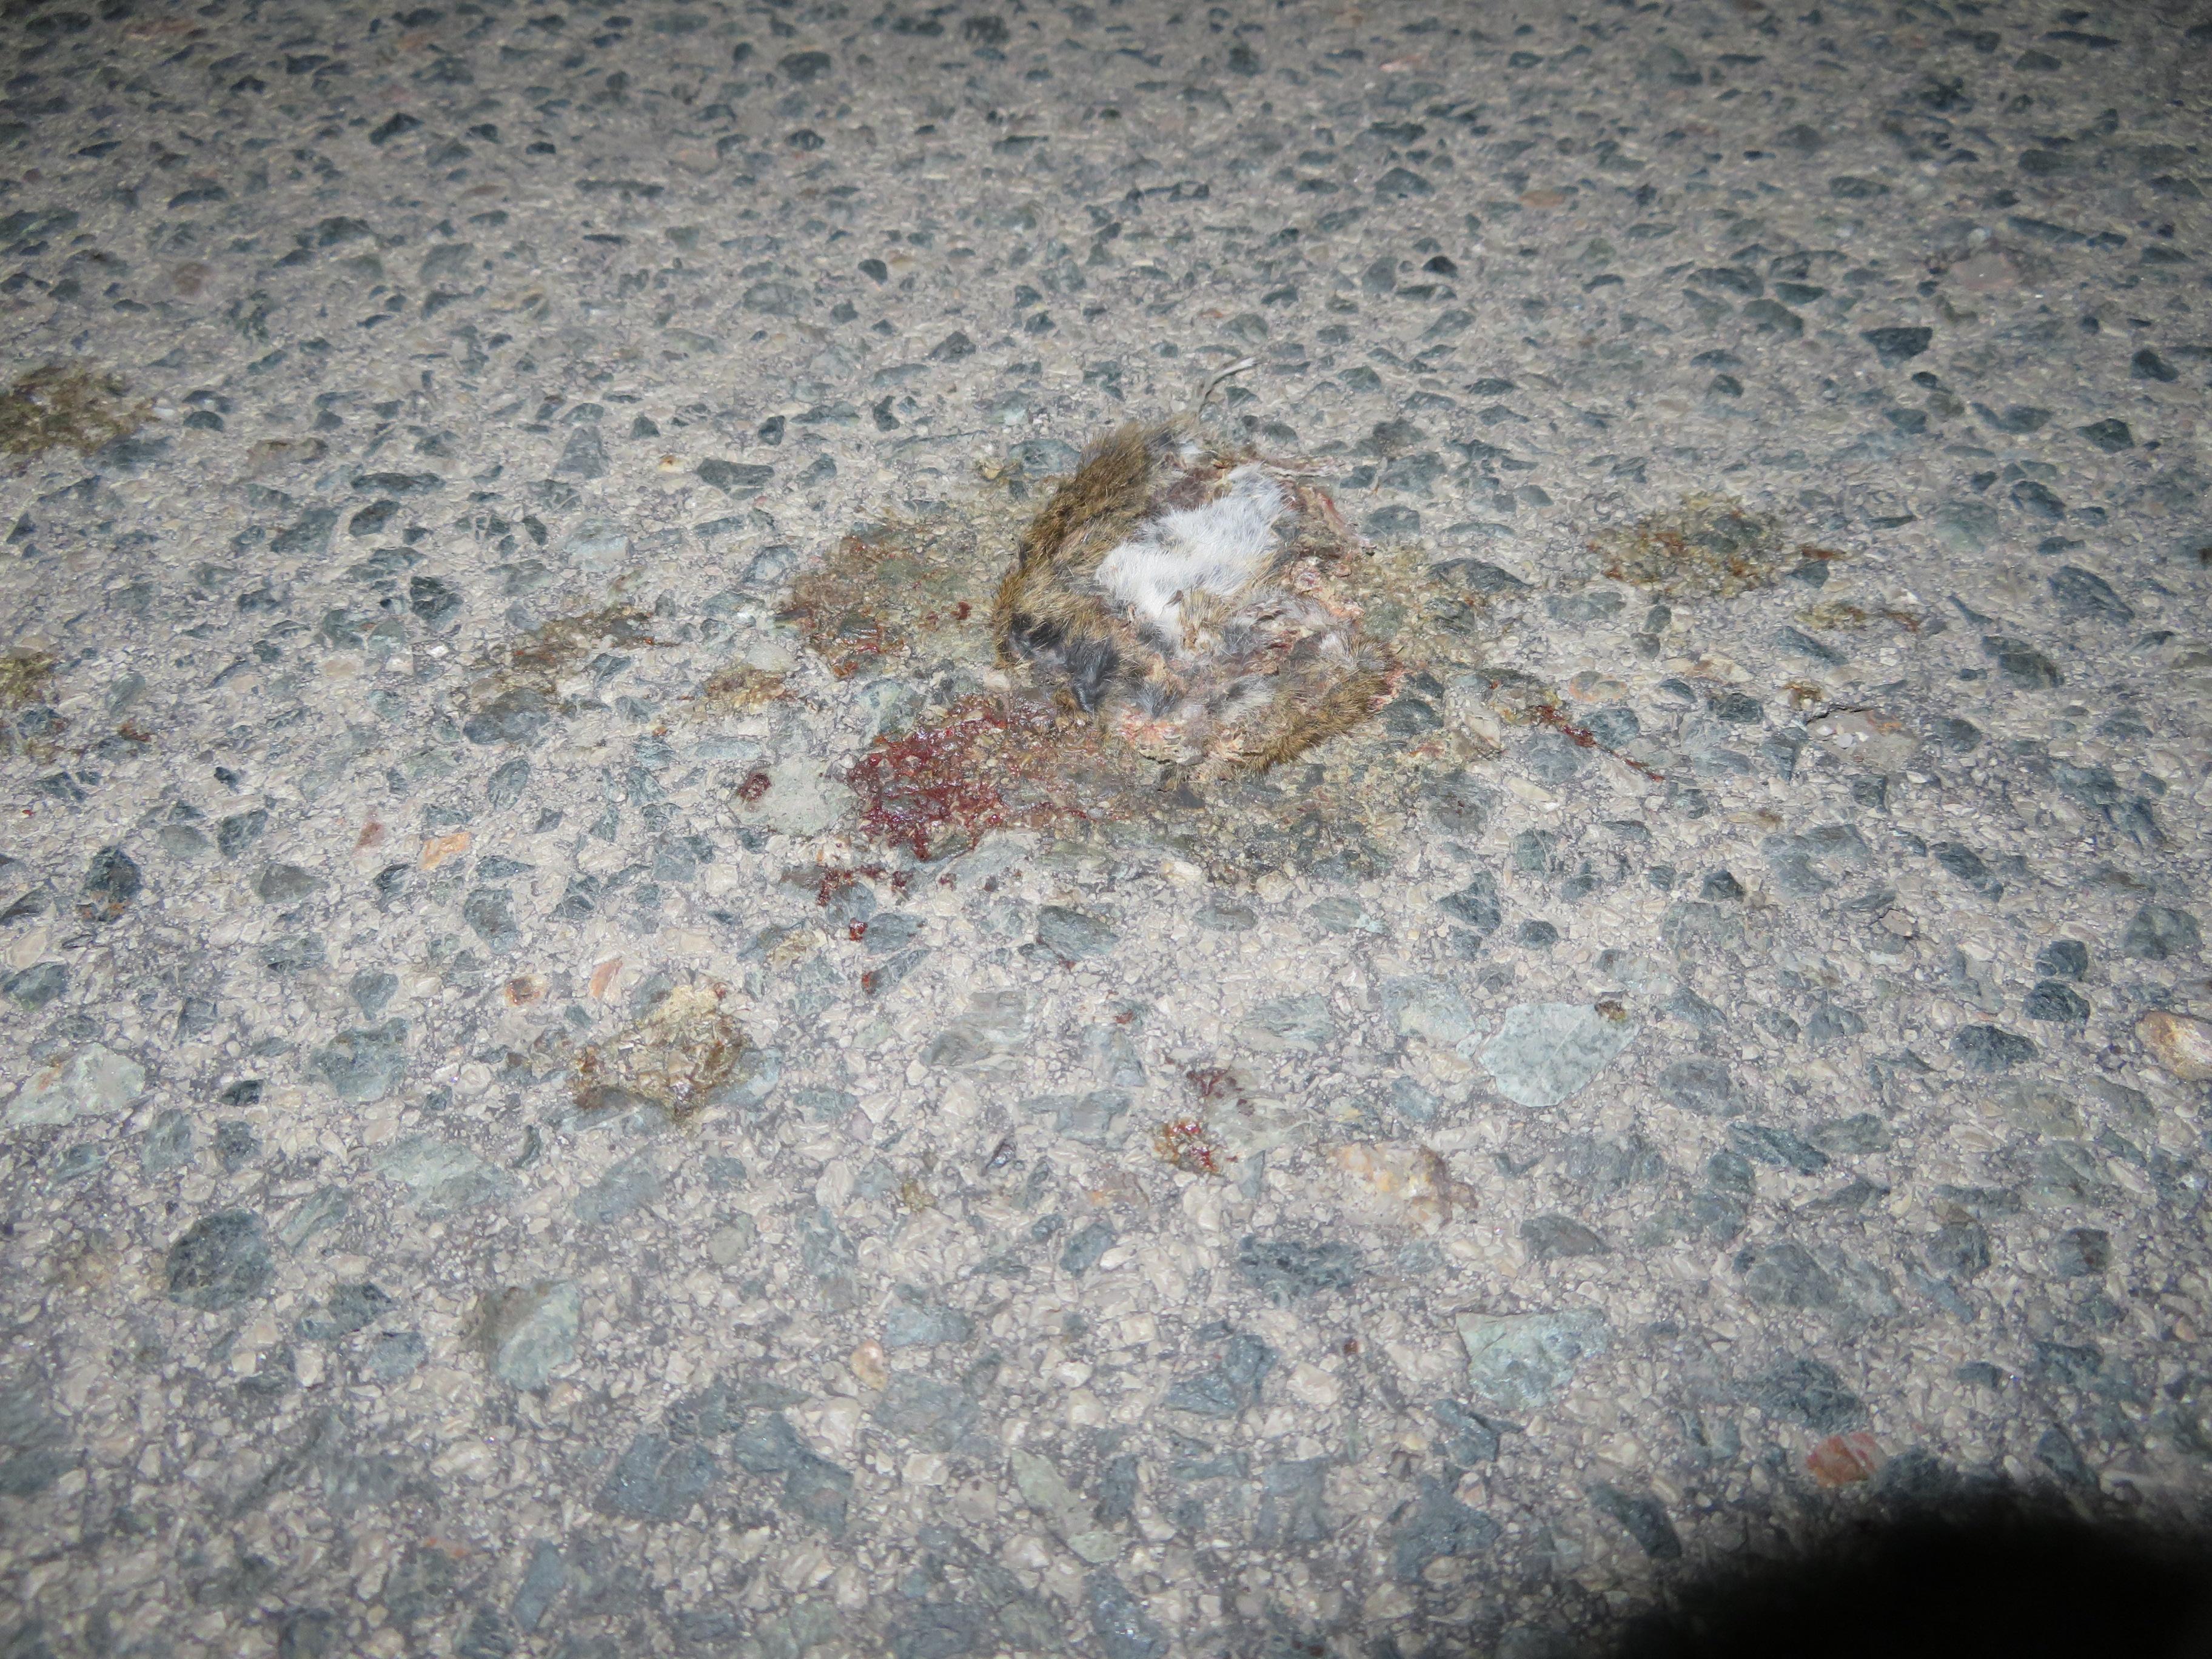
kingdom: Animalia
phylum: Chordata
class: Mammalia
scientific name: Mammalia
